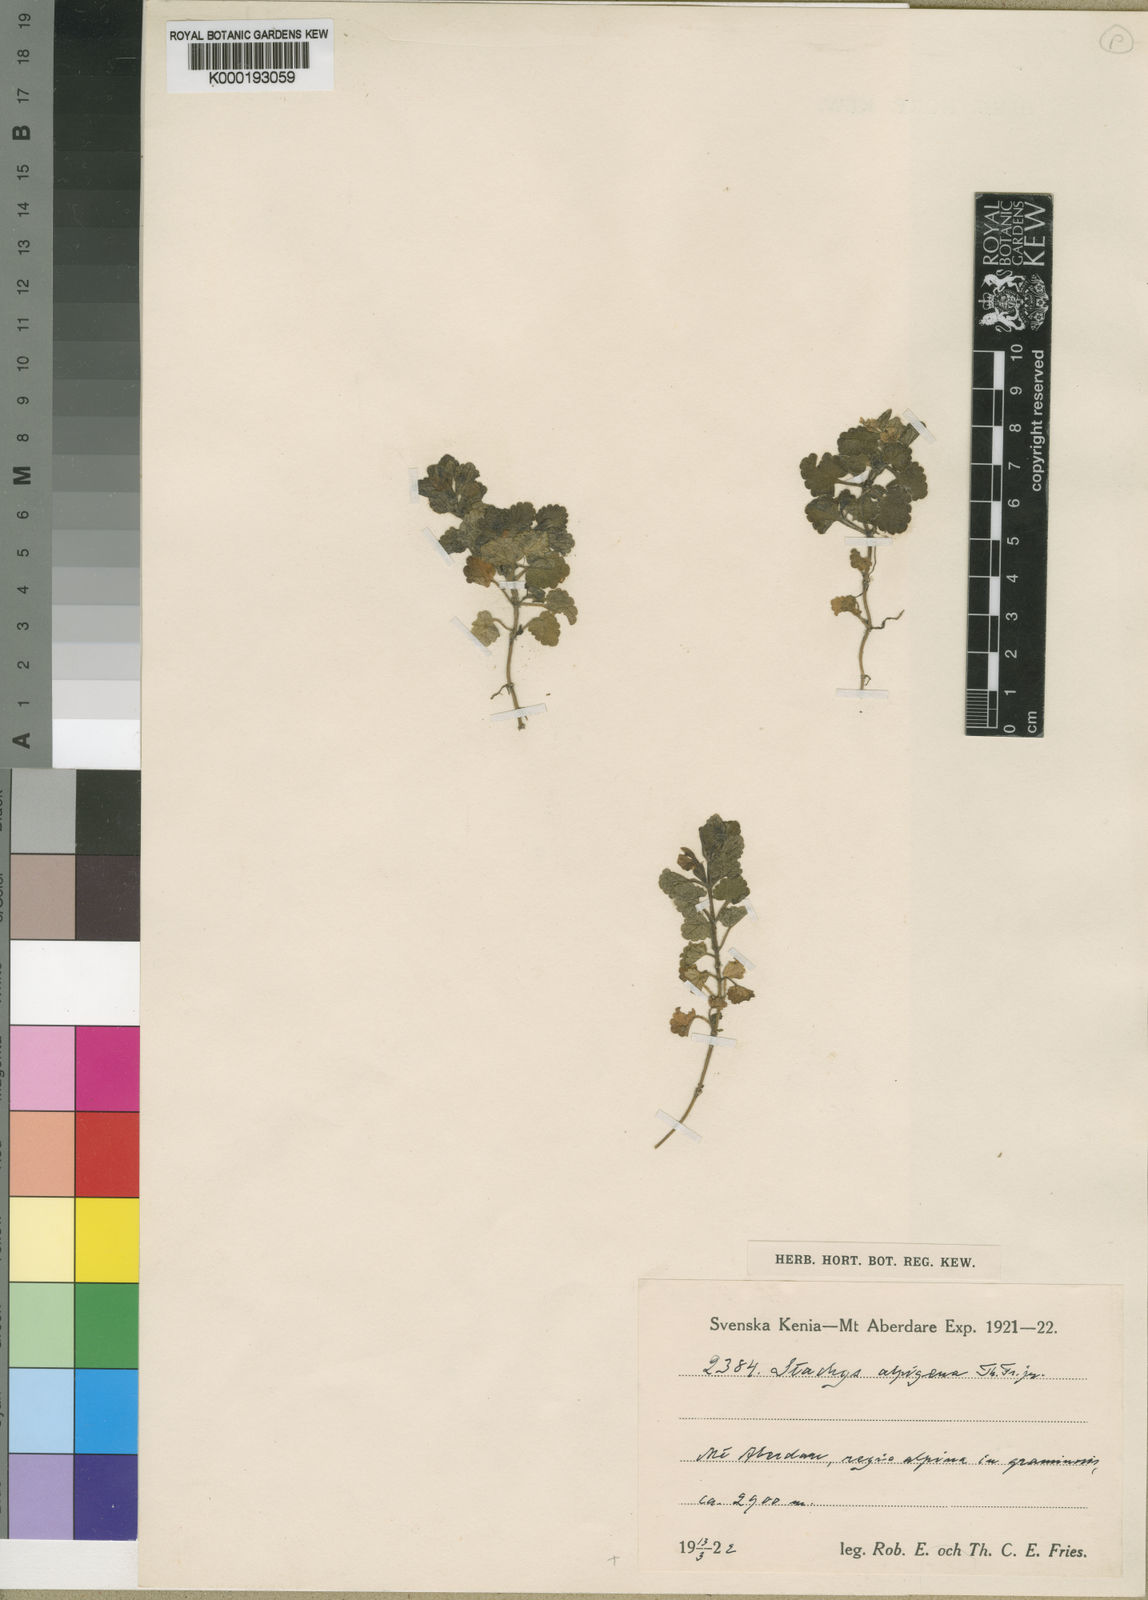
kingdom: Plantae
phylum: Tracheophyta
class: Magnoliopsida
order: Lamiales
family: Lamiaceae
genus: Stachys
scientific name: Stachys alpigena
